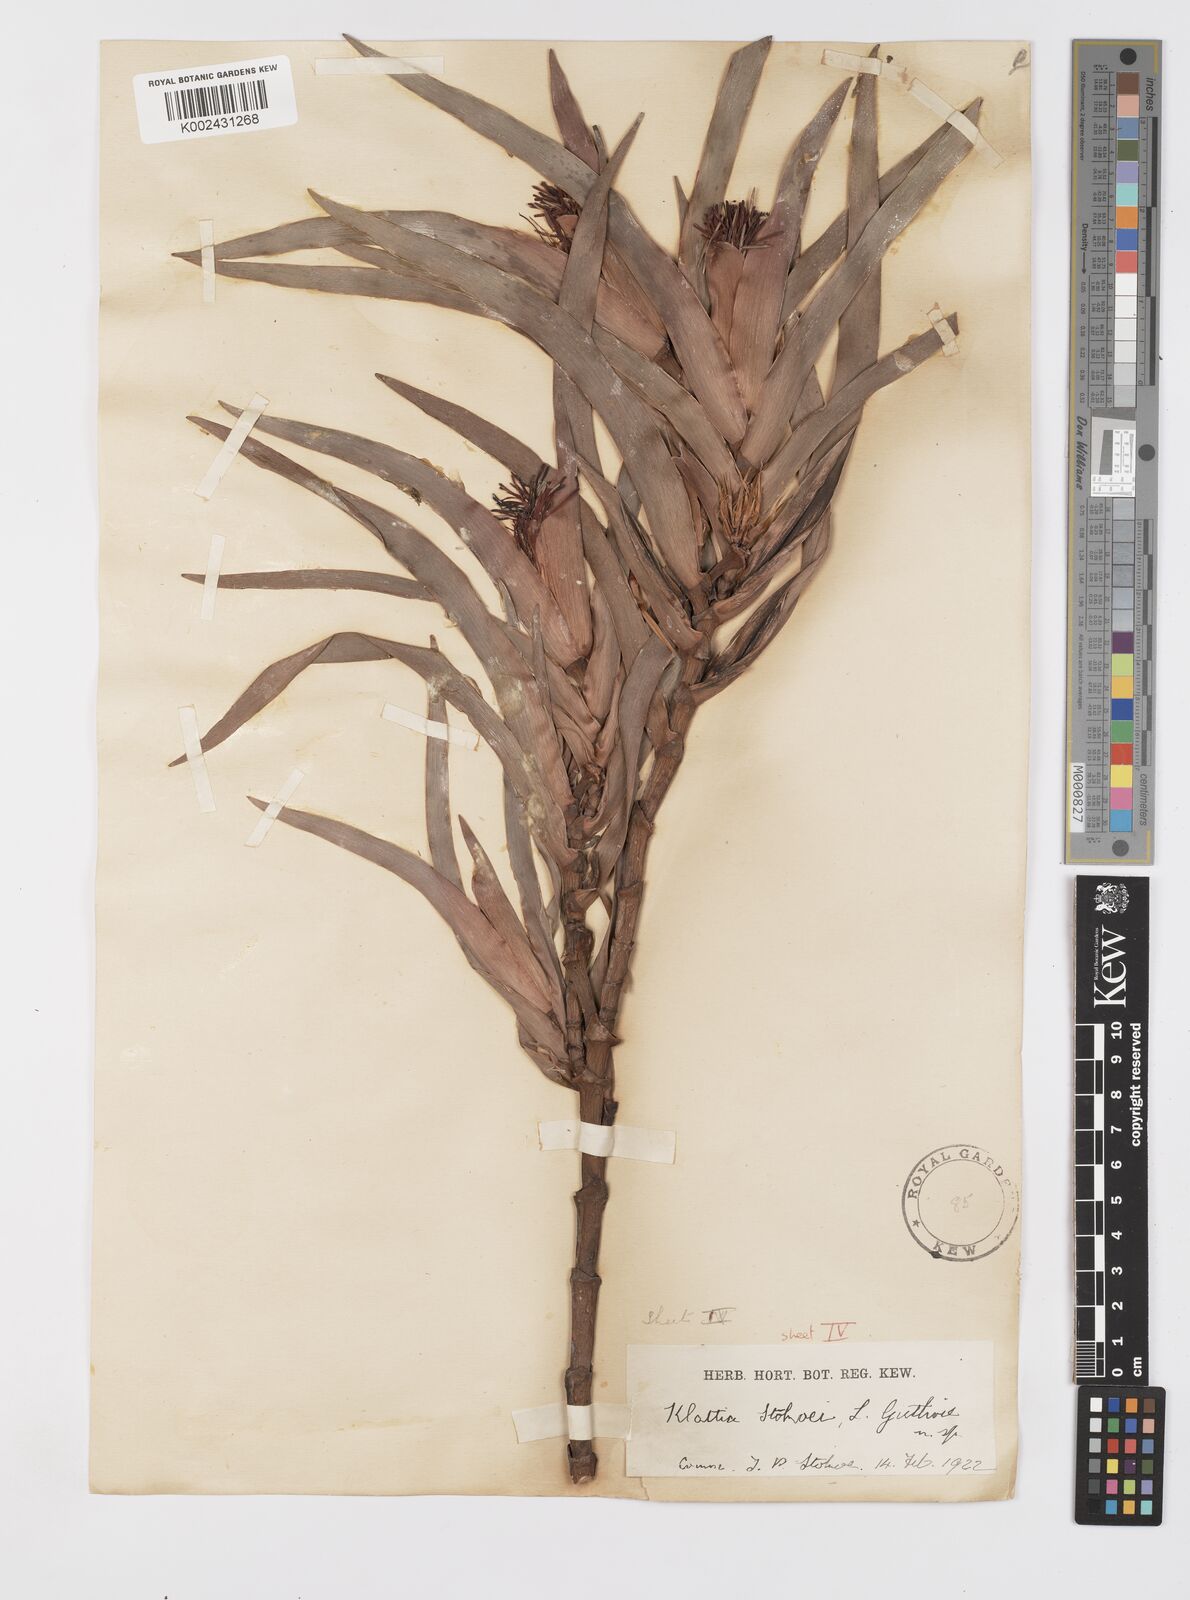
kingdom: Plantae
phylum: Tracheophyta
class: Liliopsida
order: Asparagales
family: Iridaceae
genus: Klattia
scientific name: Klattia stokoei
